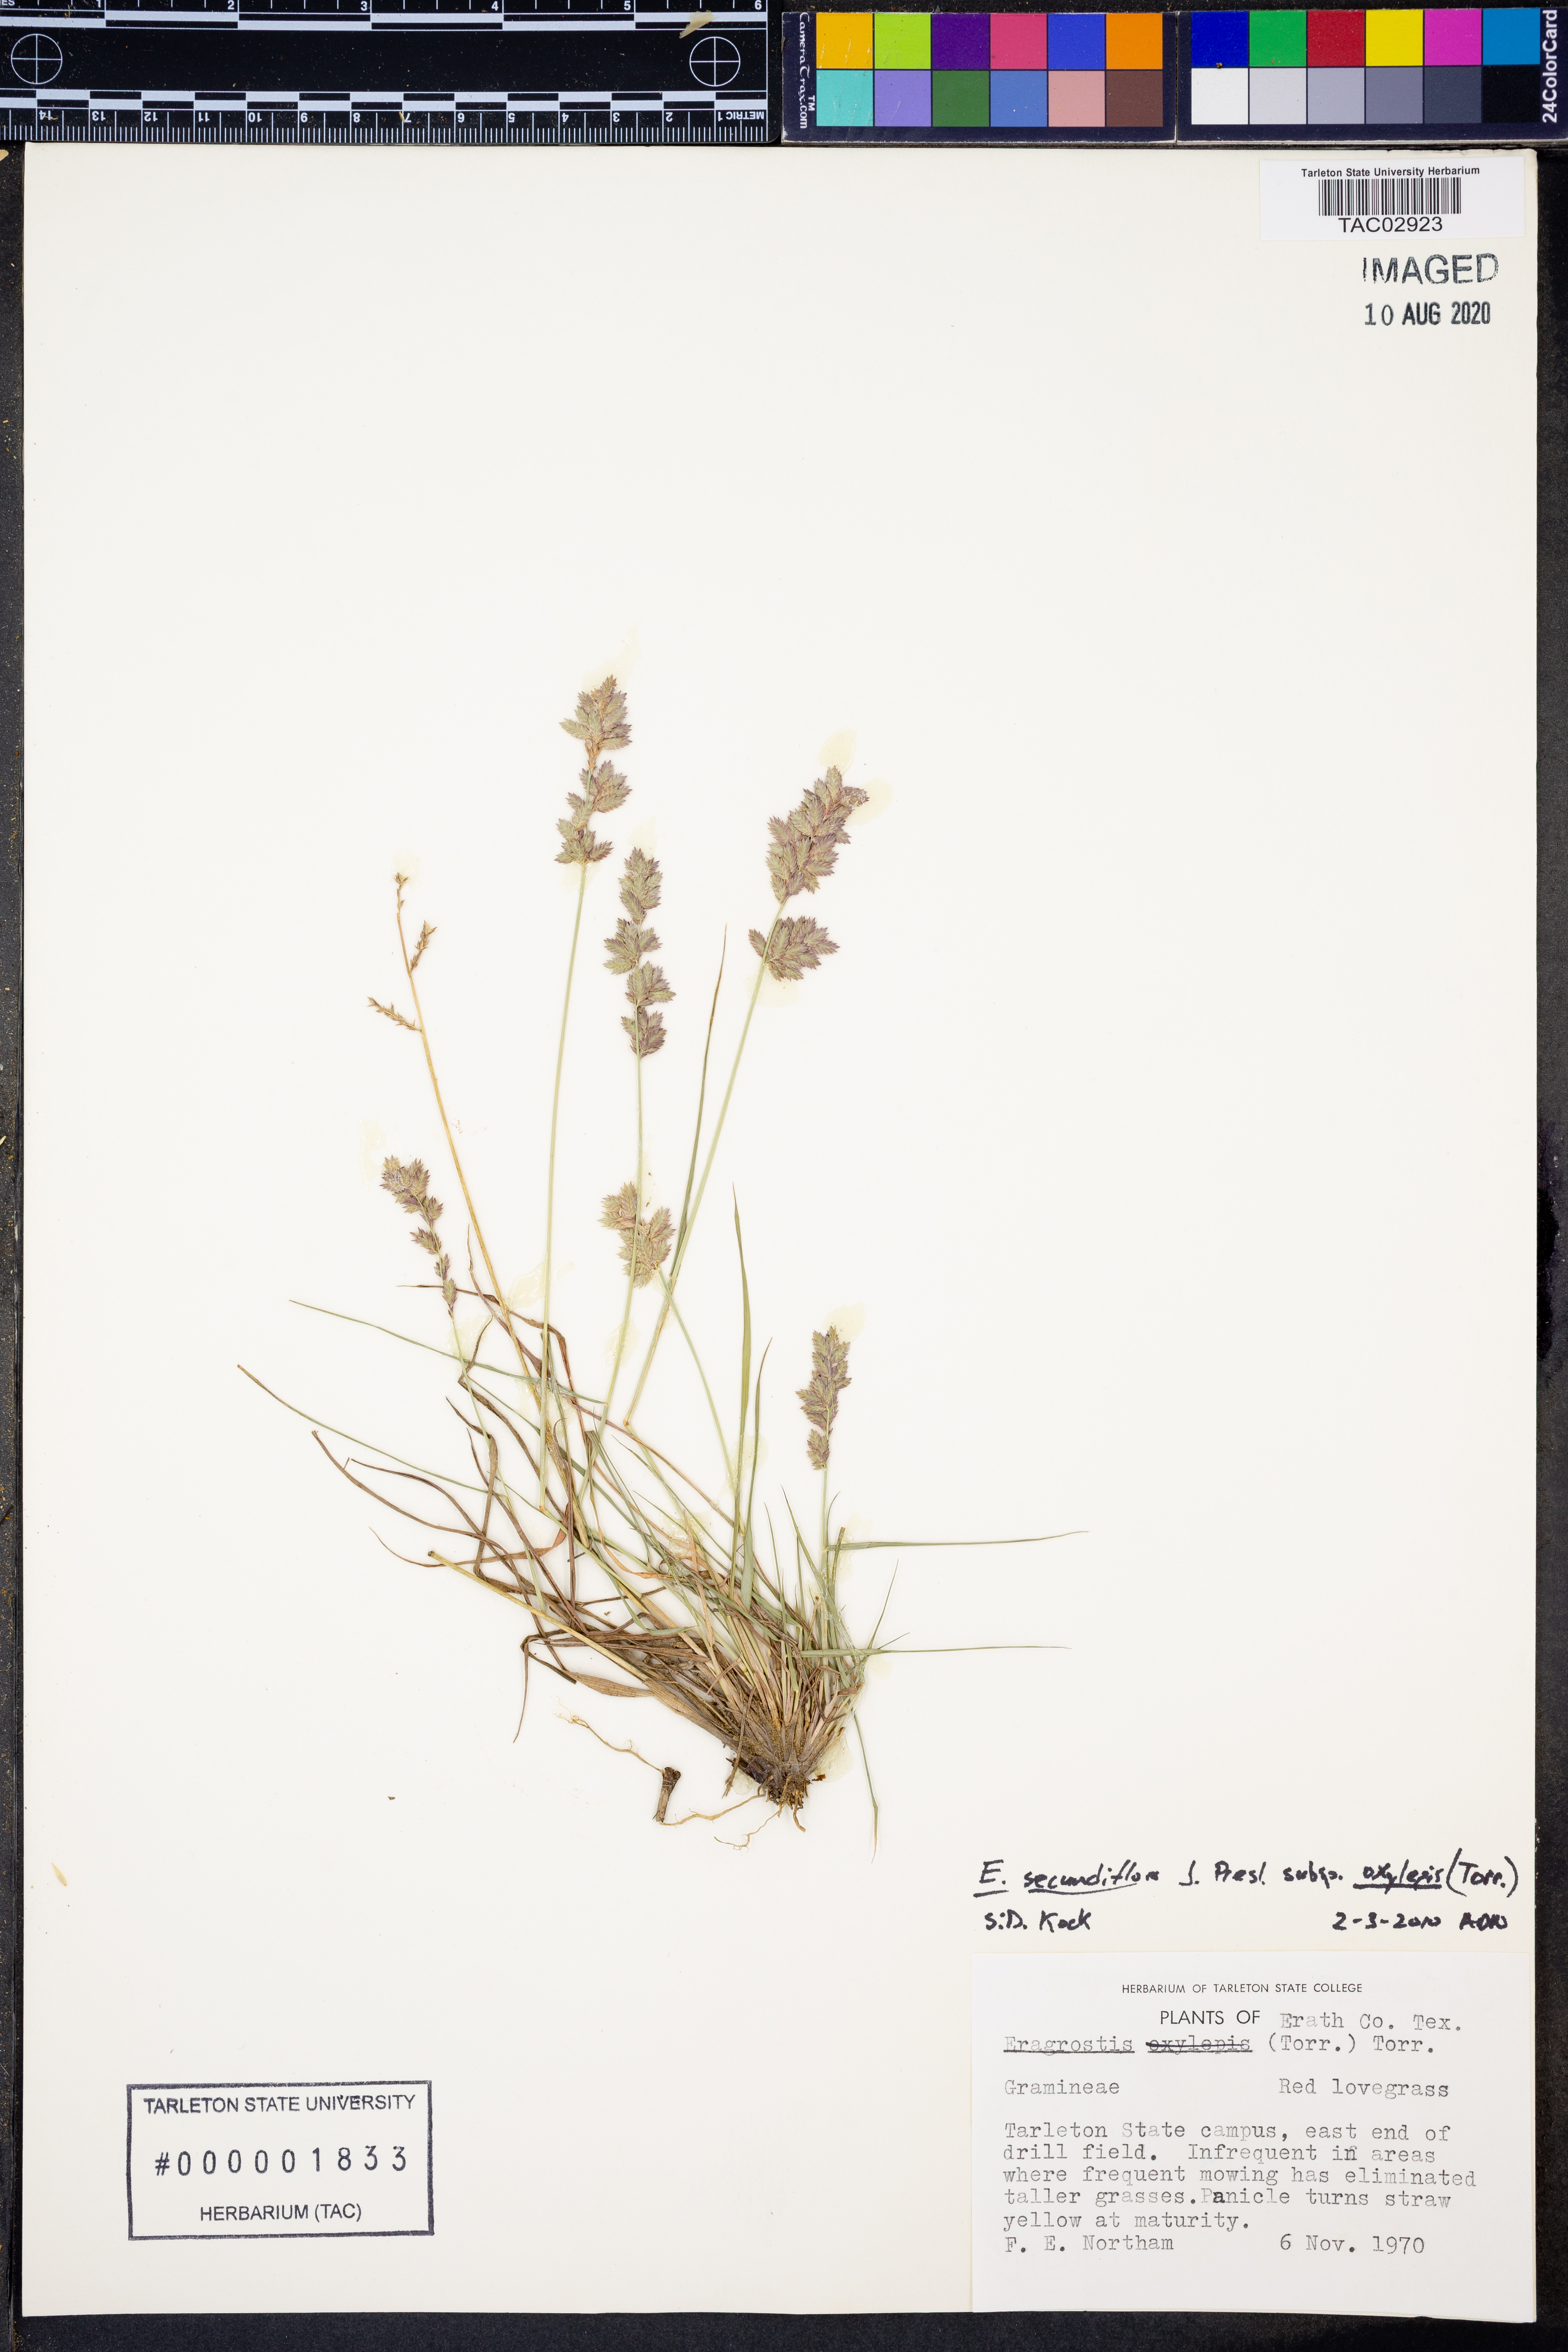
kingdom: Plantae
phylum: Tracheophyta
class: Liliopsida
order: Poales
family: Poaceae
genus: Eragrostis
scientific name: Eragrostis secundiflora
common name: Red love grass
